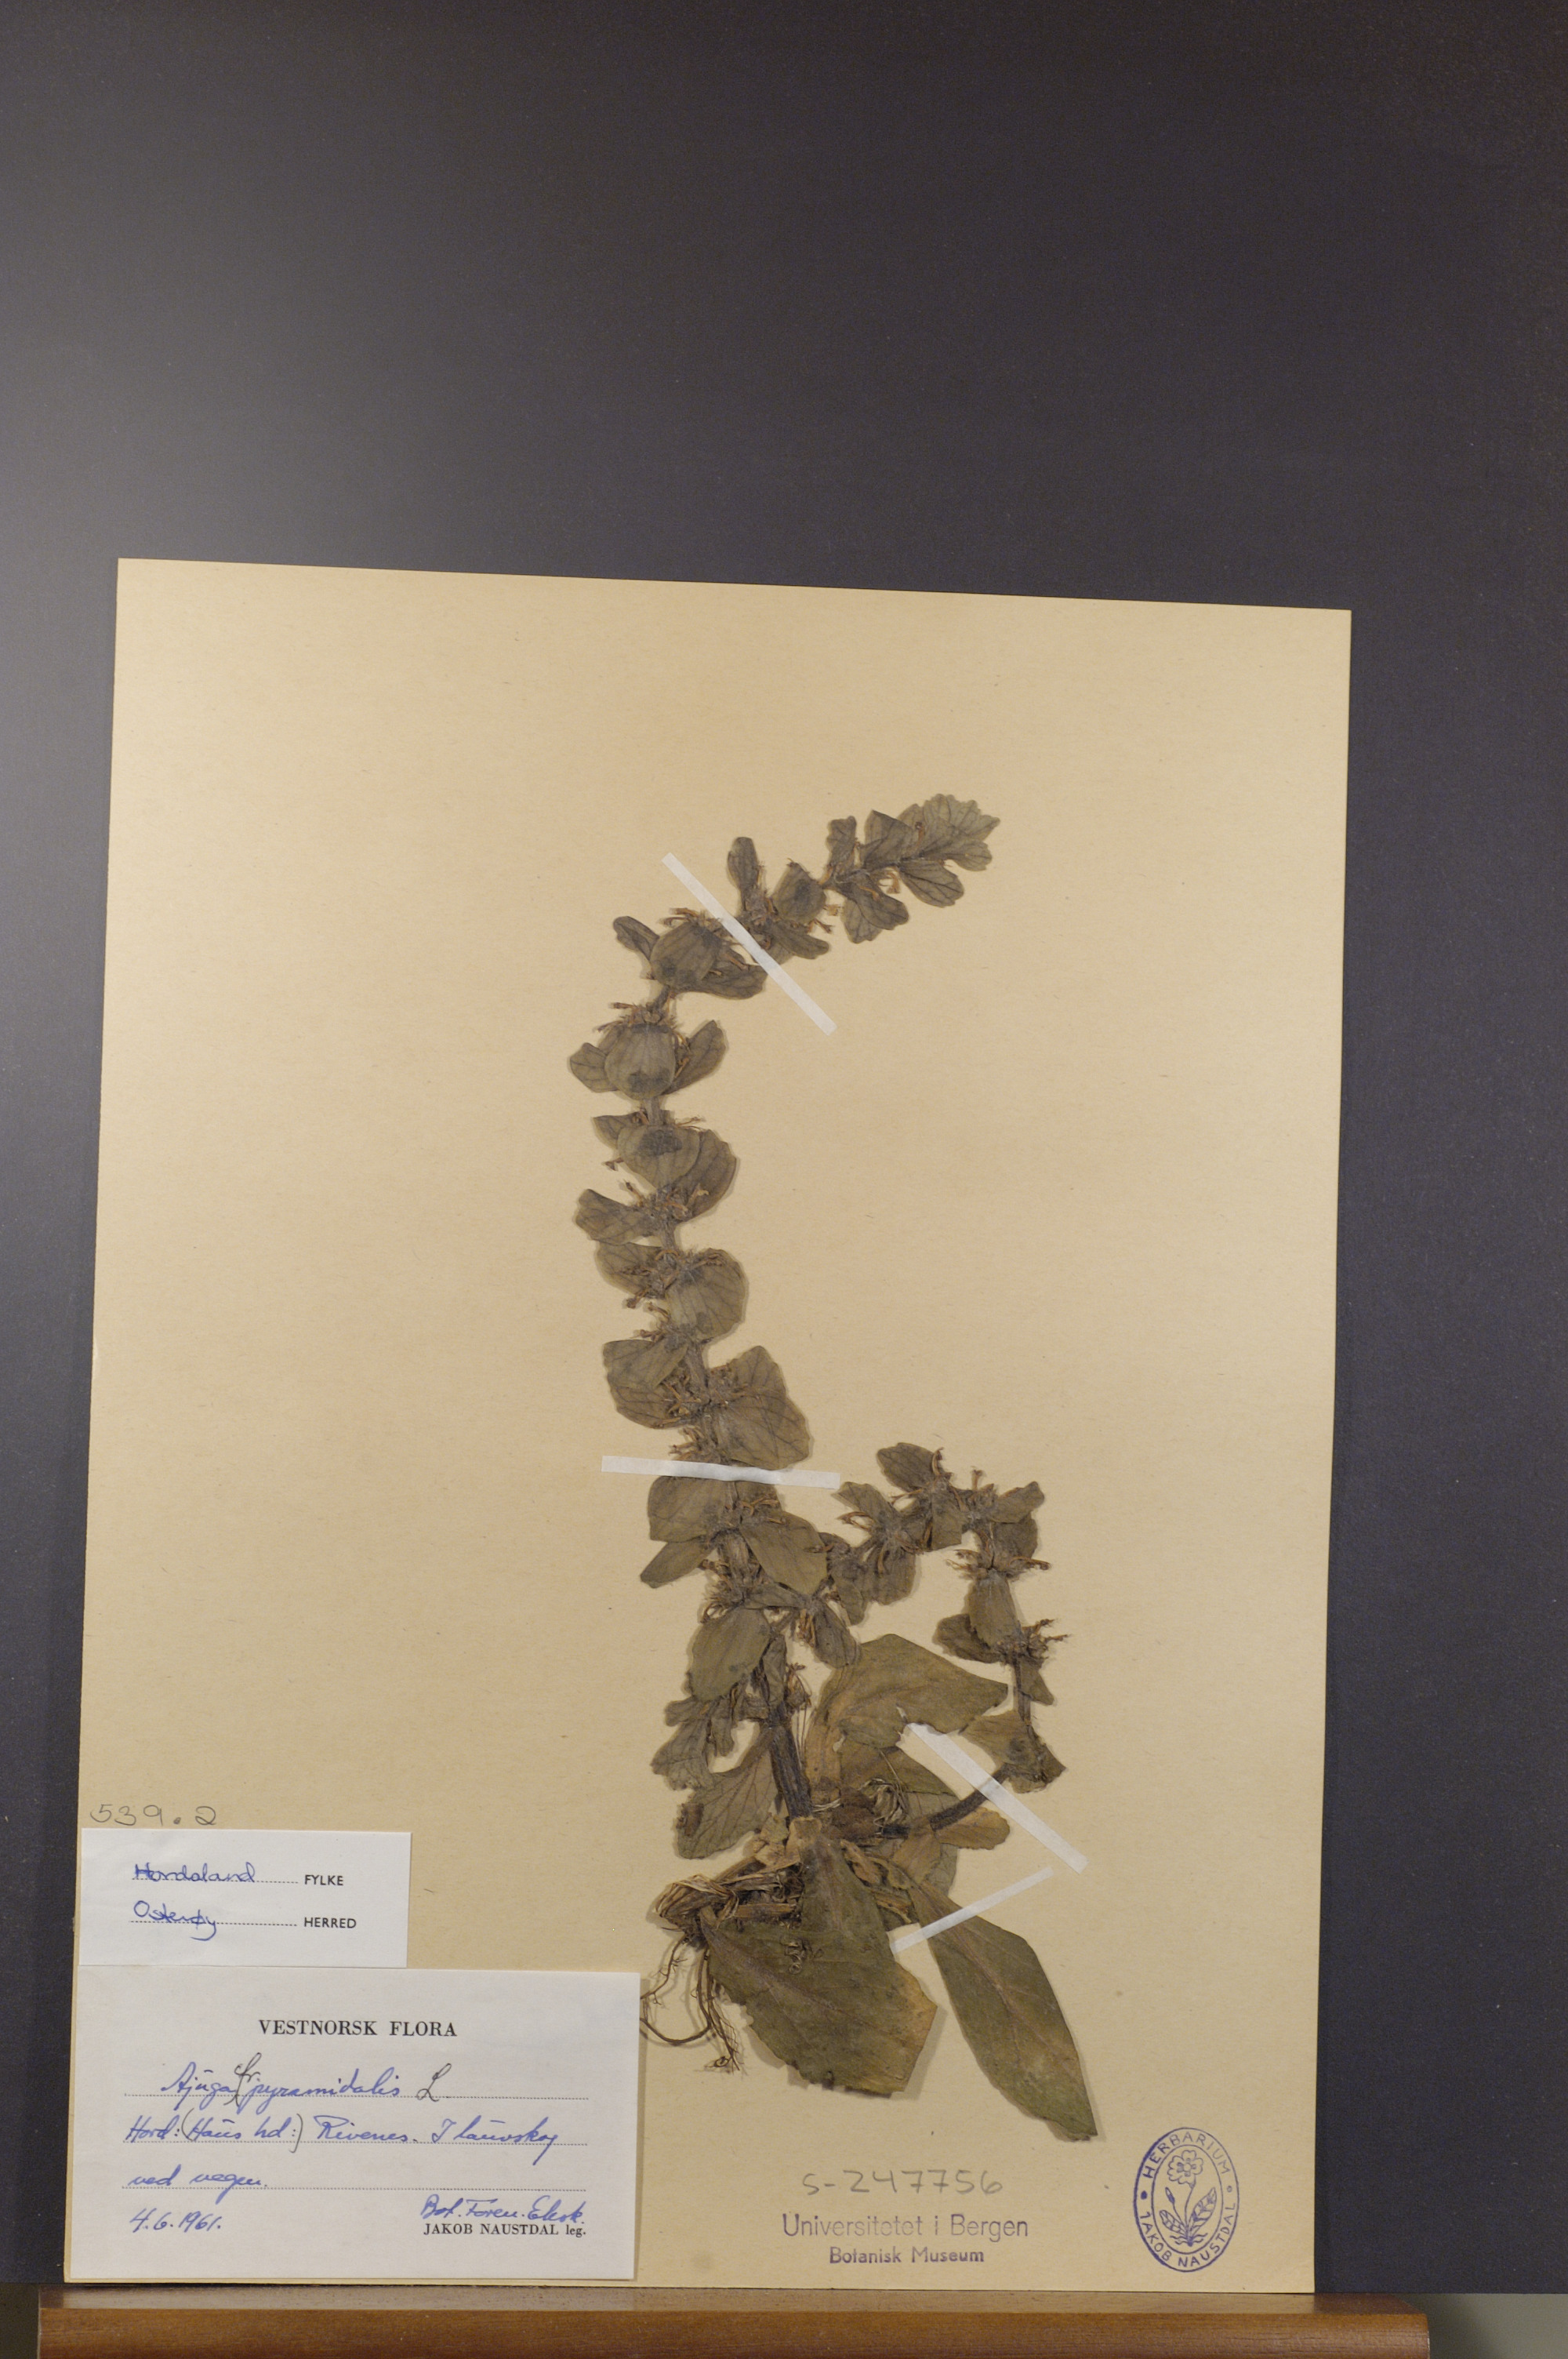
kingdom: Plantae
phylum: Tracheophyta
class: Magnoliopsida
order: Lamiales
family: Lamiaceae
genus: Ajuga
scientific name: Ajuga pyramidalis
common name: Pyramid bugle
